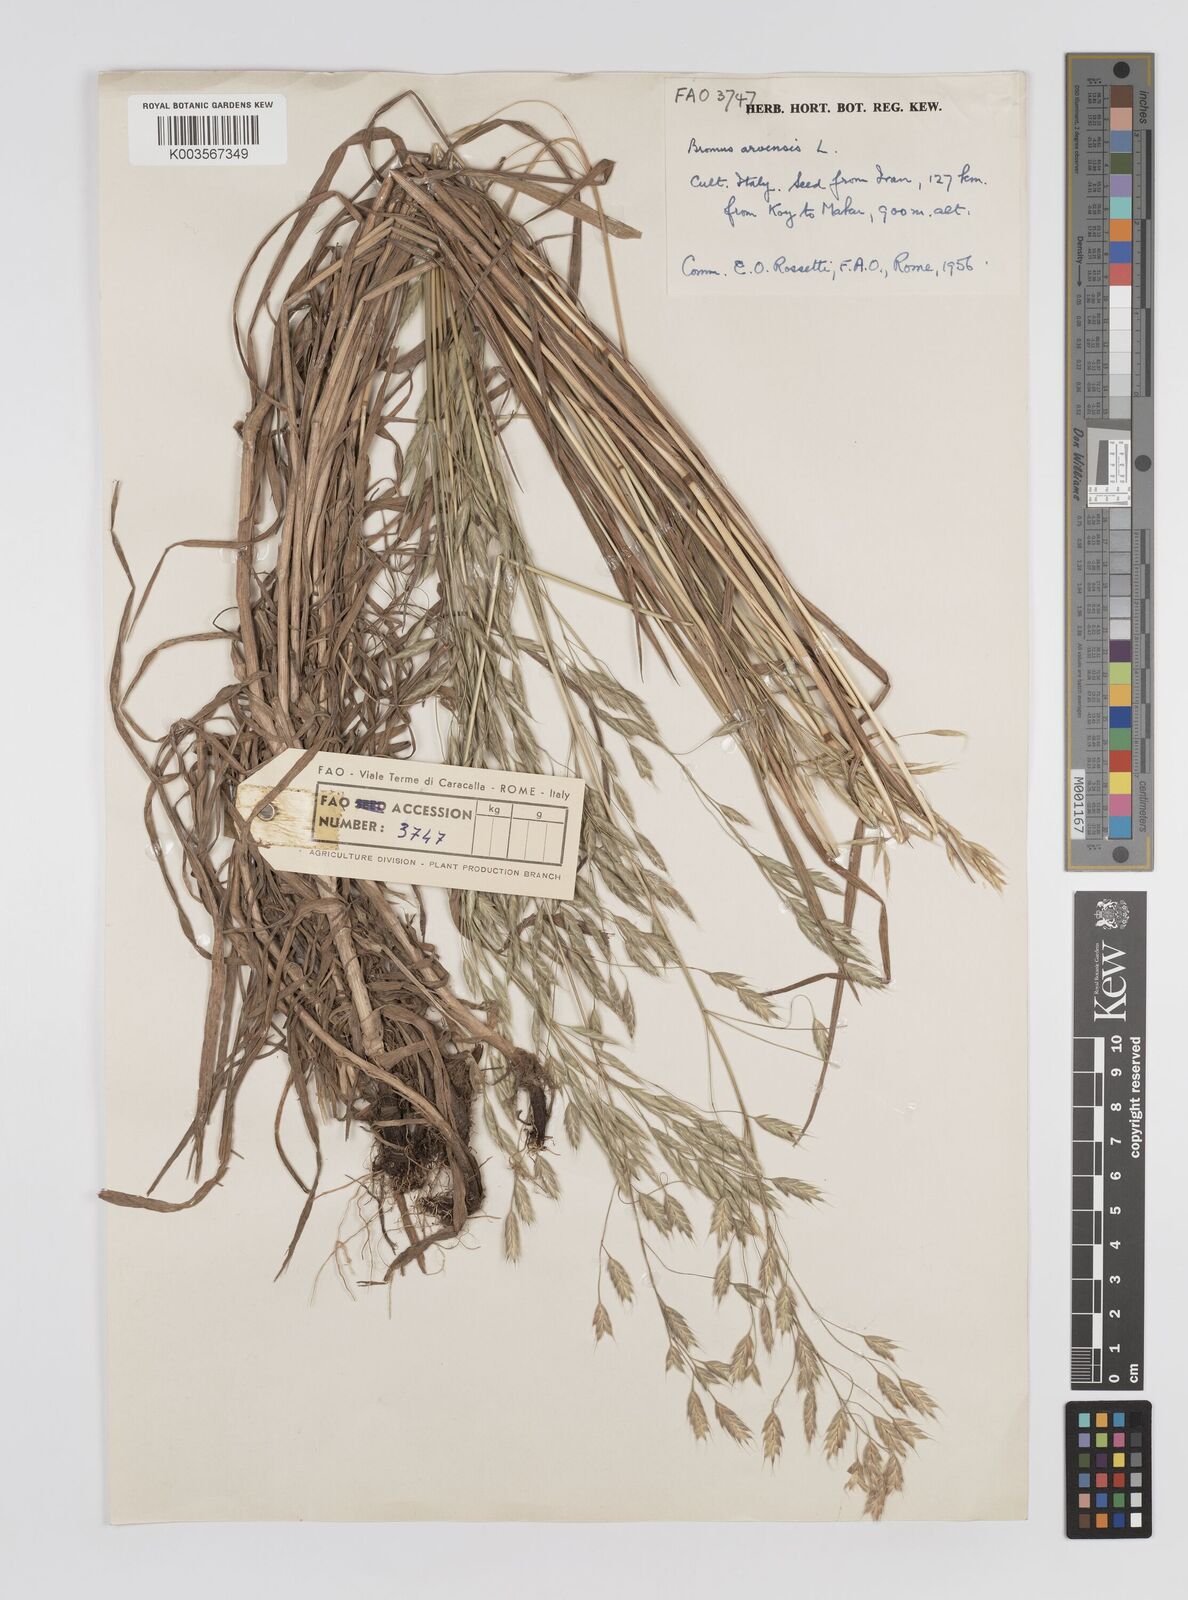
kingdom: Plantae
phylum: Tracheophyta
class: Liliopsida
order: Poales
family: Poaceae
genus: Bromus
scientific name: Bromus arvensis
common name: Field brome
